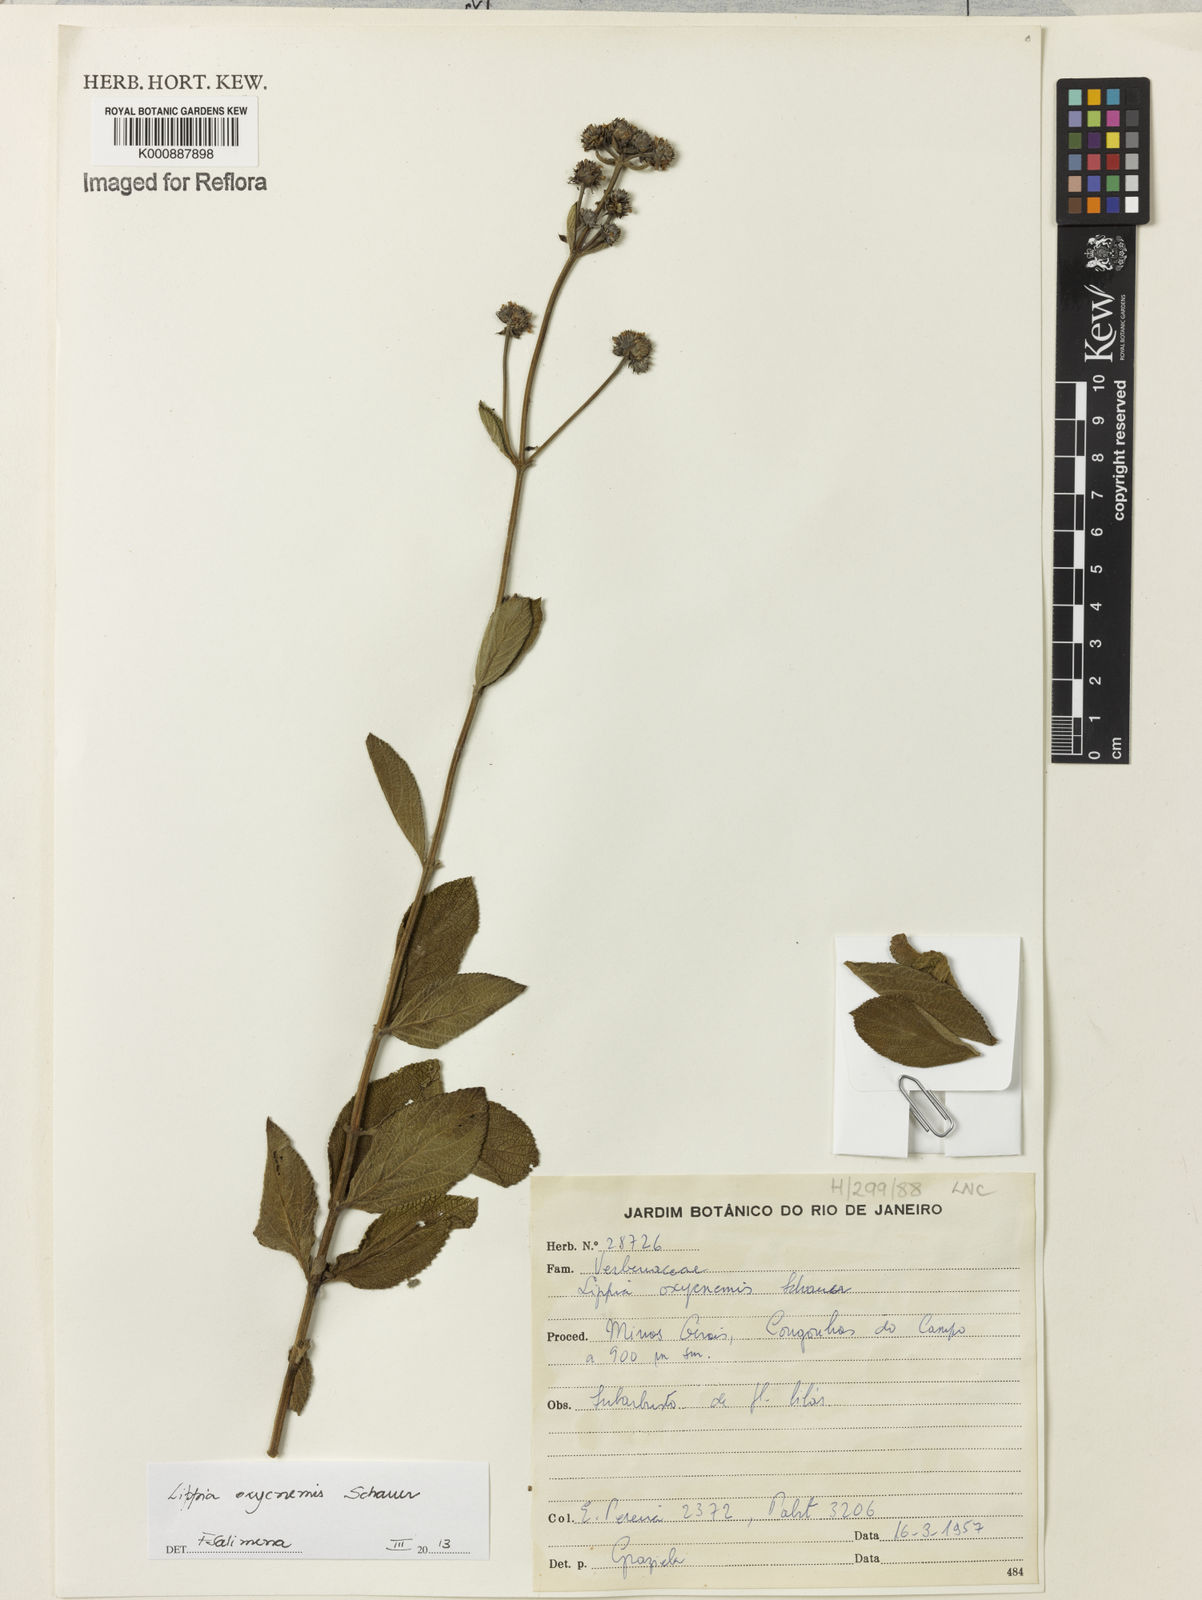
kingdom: Plantae
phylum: Tracheophyta
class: Magnoliopsida
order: Lamiales
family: Verbenaceae
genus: Lippia
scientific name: Lippia oxycnemis
